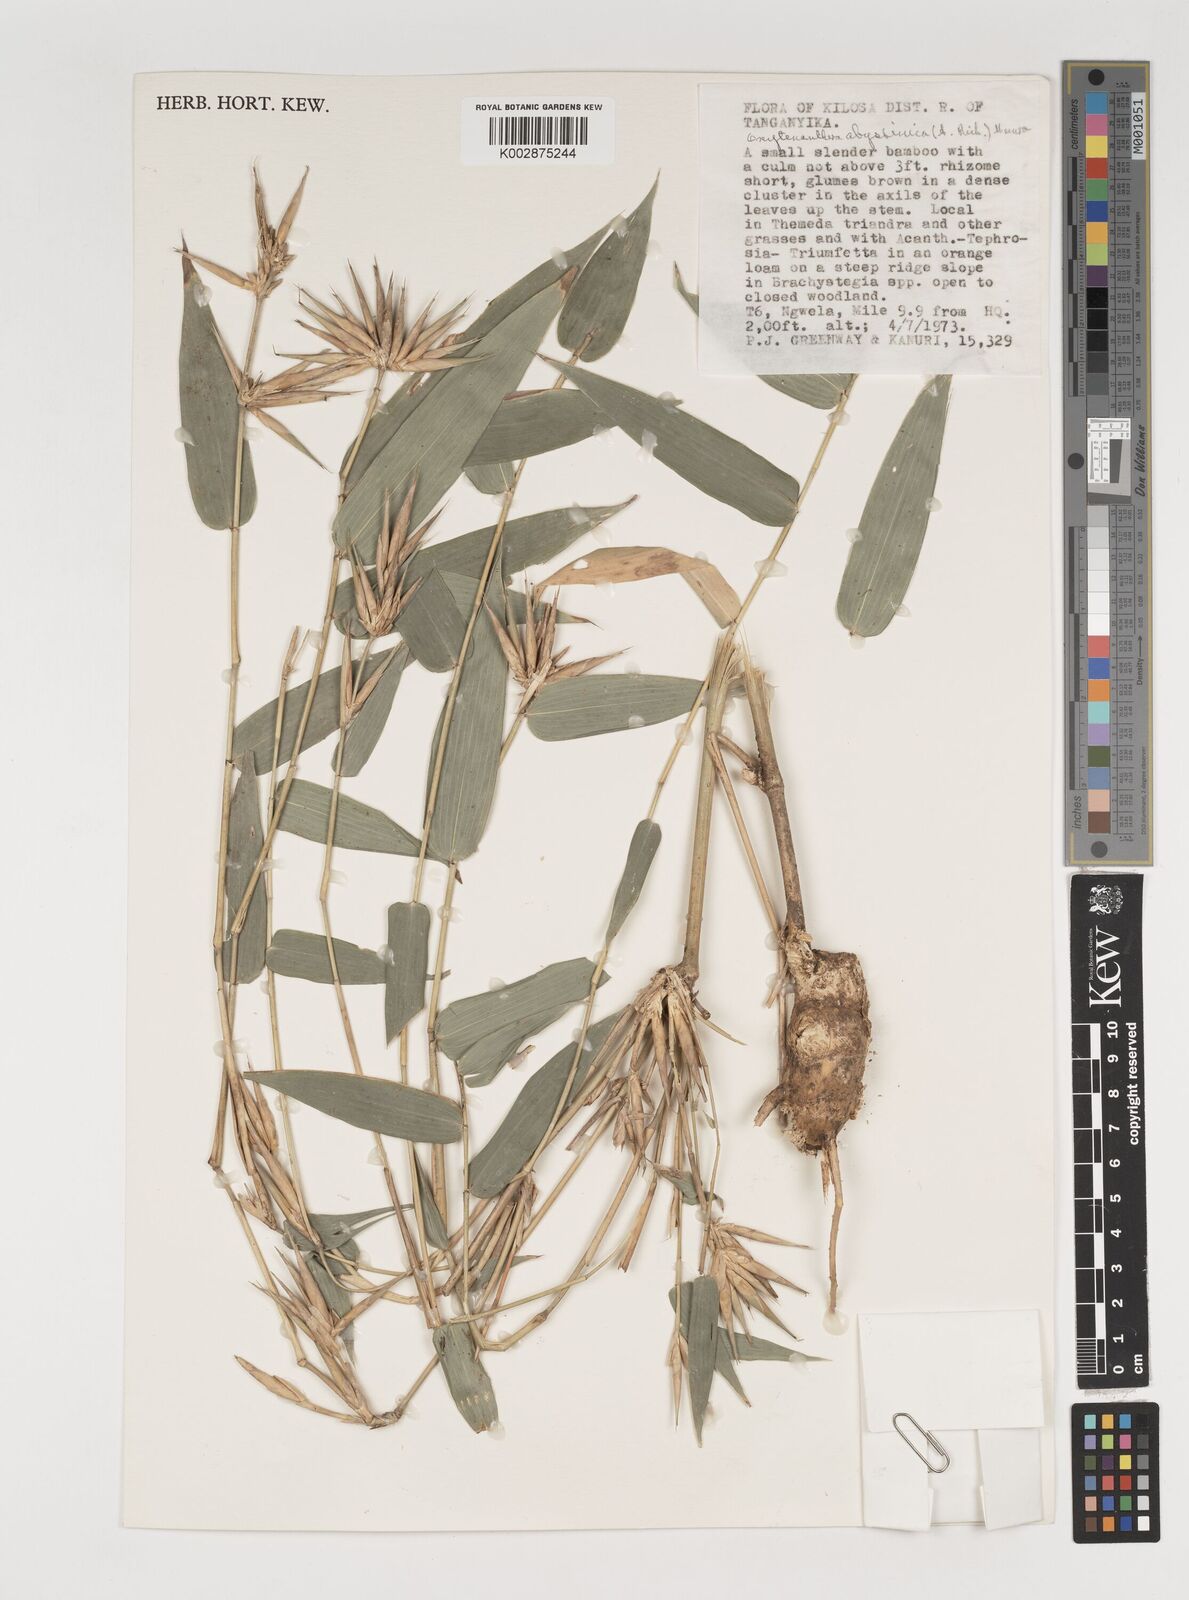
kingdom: Plantae
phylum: Tracheophyta
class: Liliopsida
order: Poales
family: Poaceae
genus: Oxytenanthera
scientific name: Oxytenanthera
